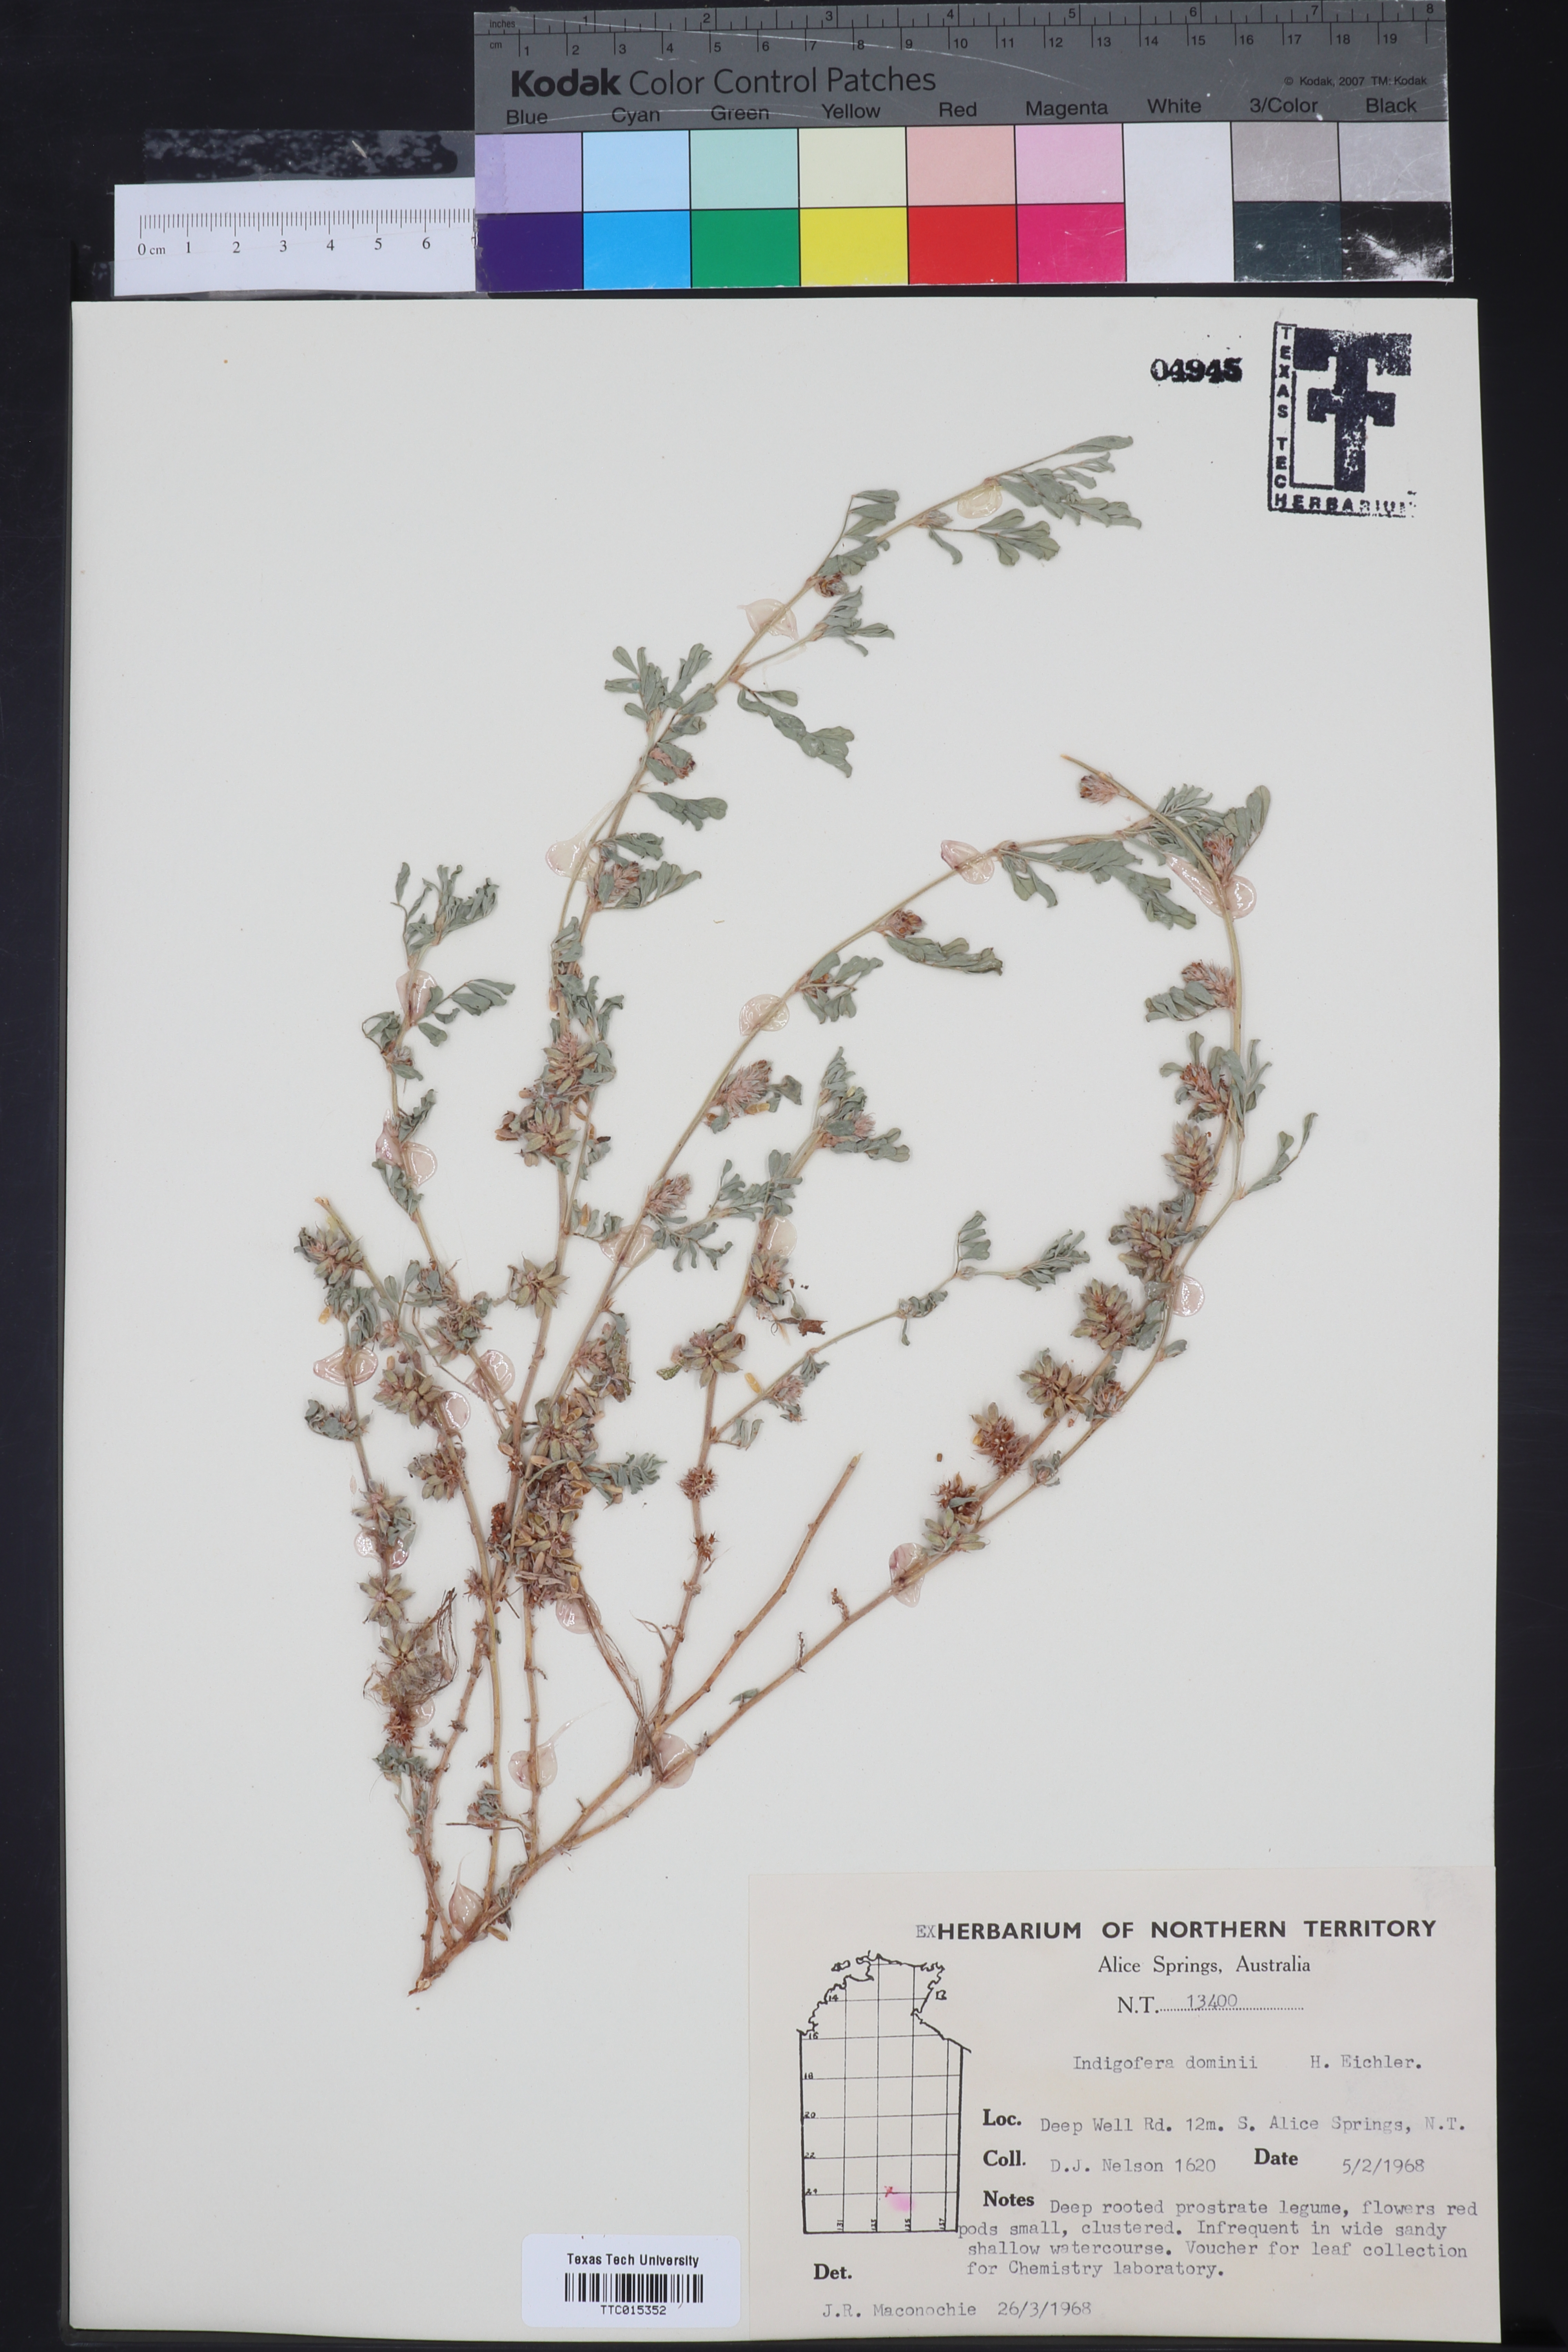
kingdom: Plantae
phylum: Tracheophyta
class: Magnoliopsida
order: Fabales
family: Fabaceae
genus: Indigofera
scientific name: Indigofera linnaei
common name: Nine-leaf indigo
